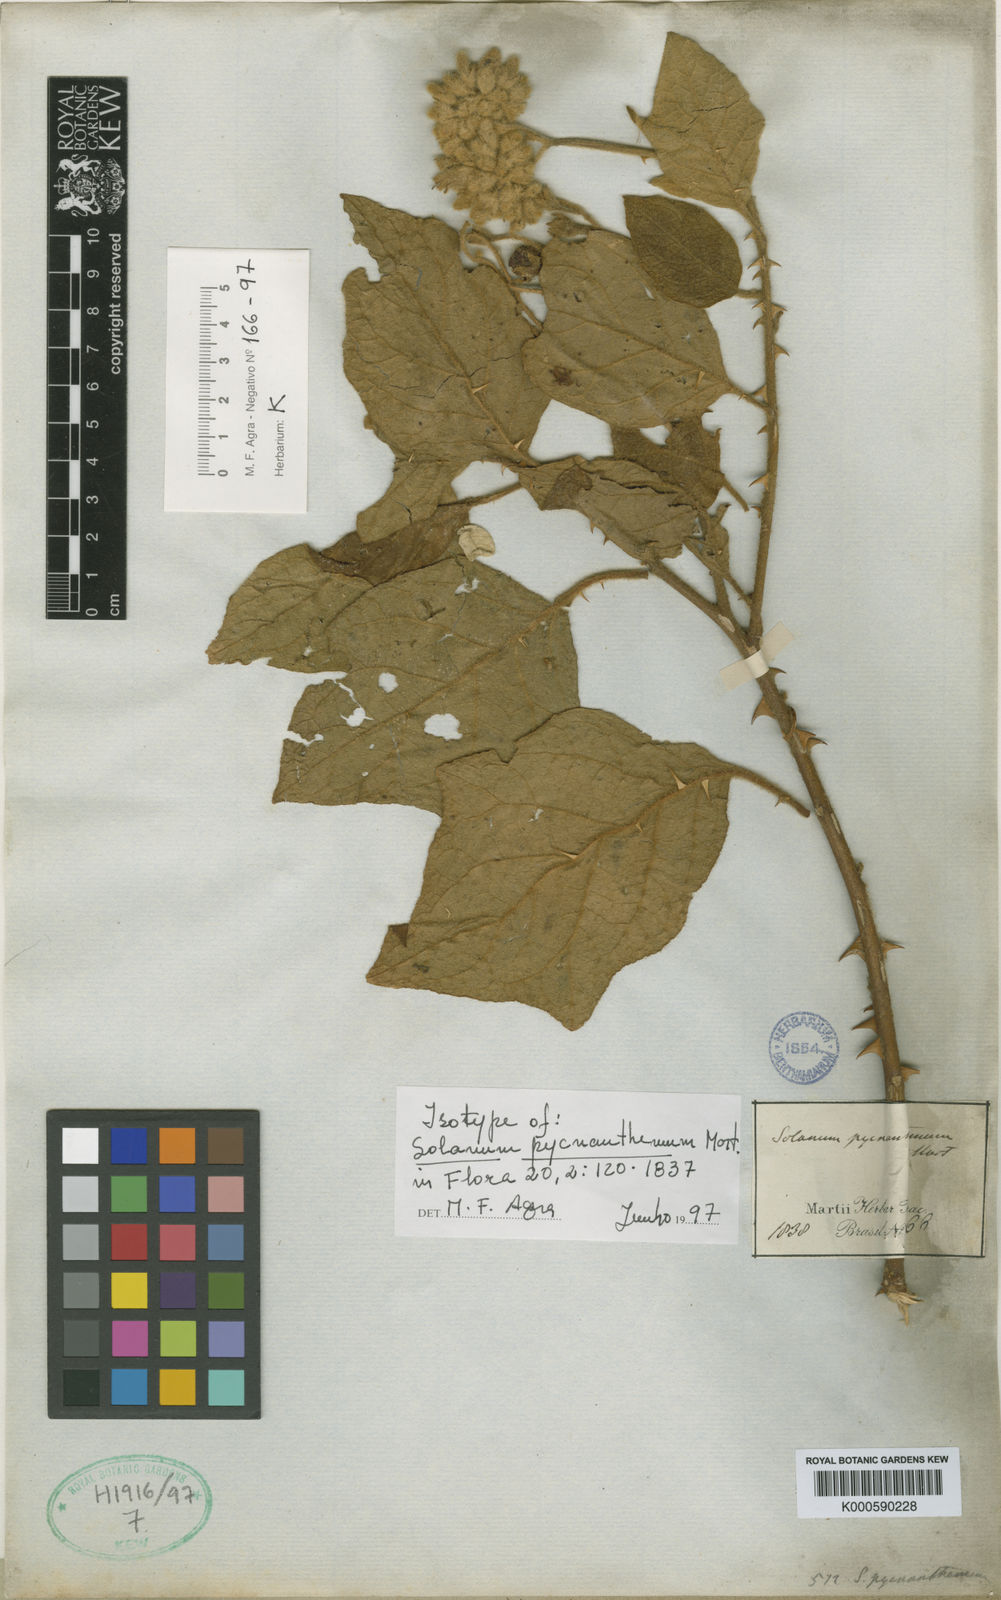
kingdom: Plantae
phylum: Tracheophyta
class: Magnoliopsida
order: Solanales
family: Solanaceae
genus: Solanum
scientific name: Solanum pycnanthemum
